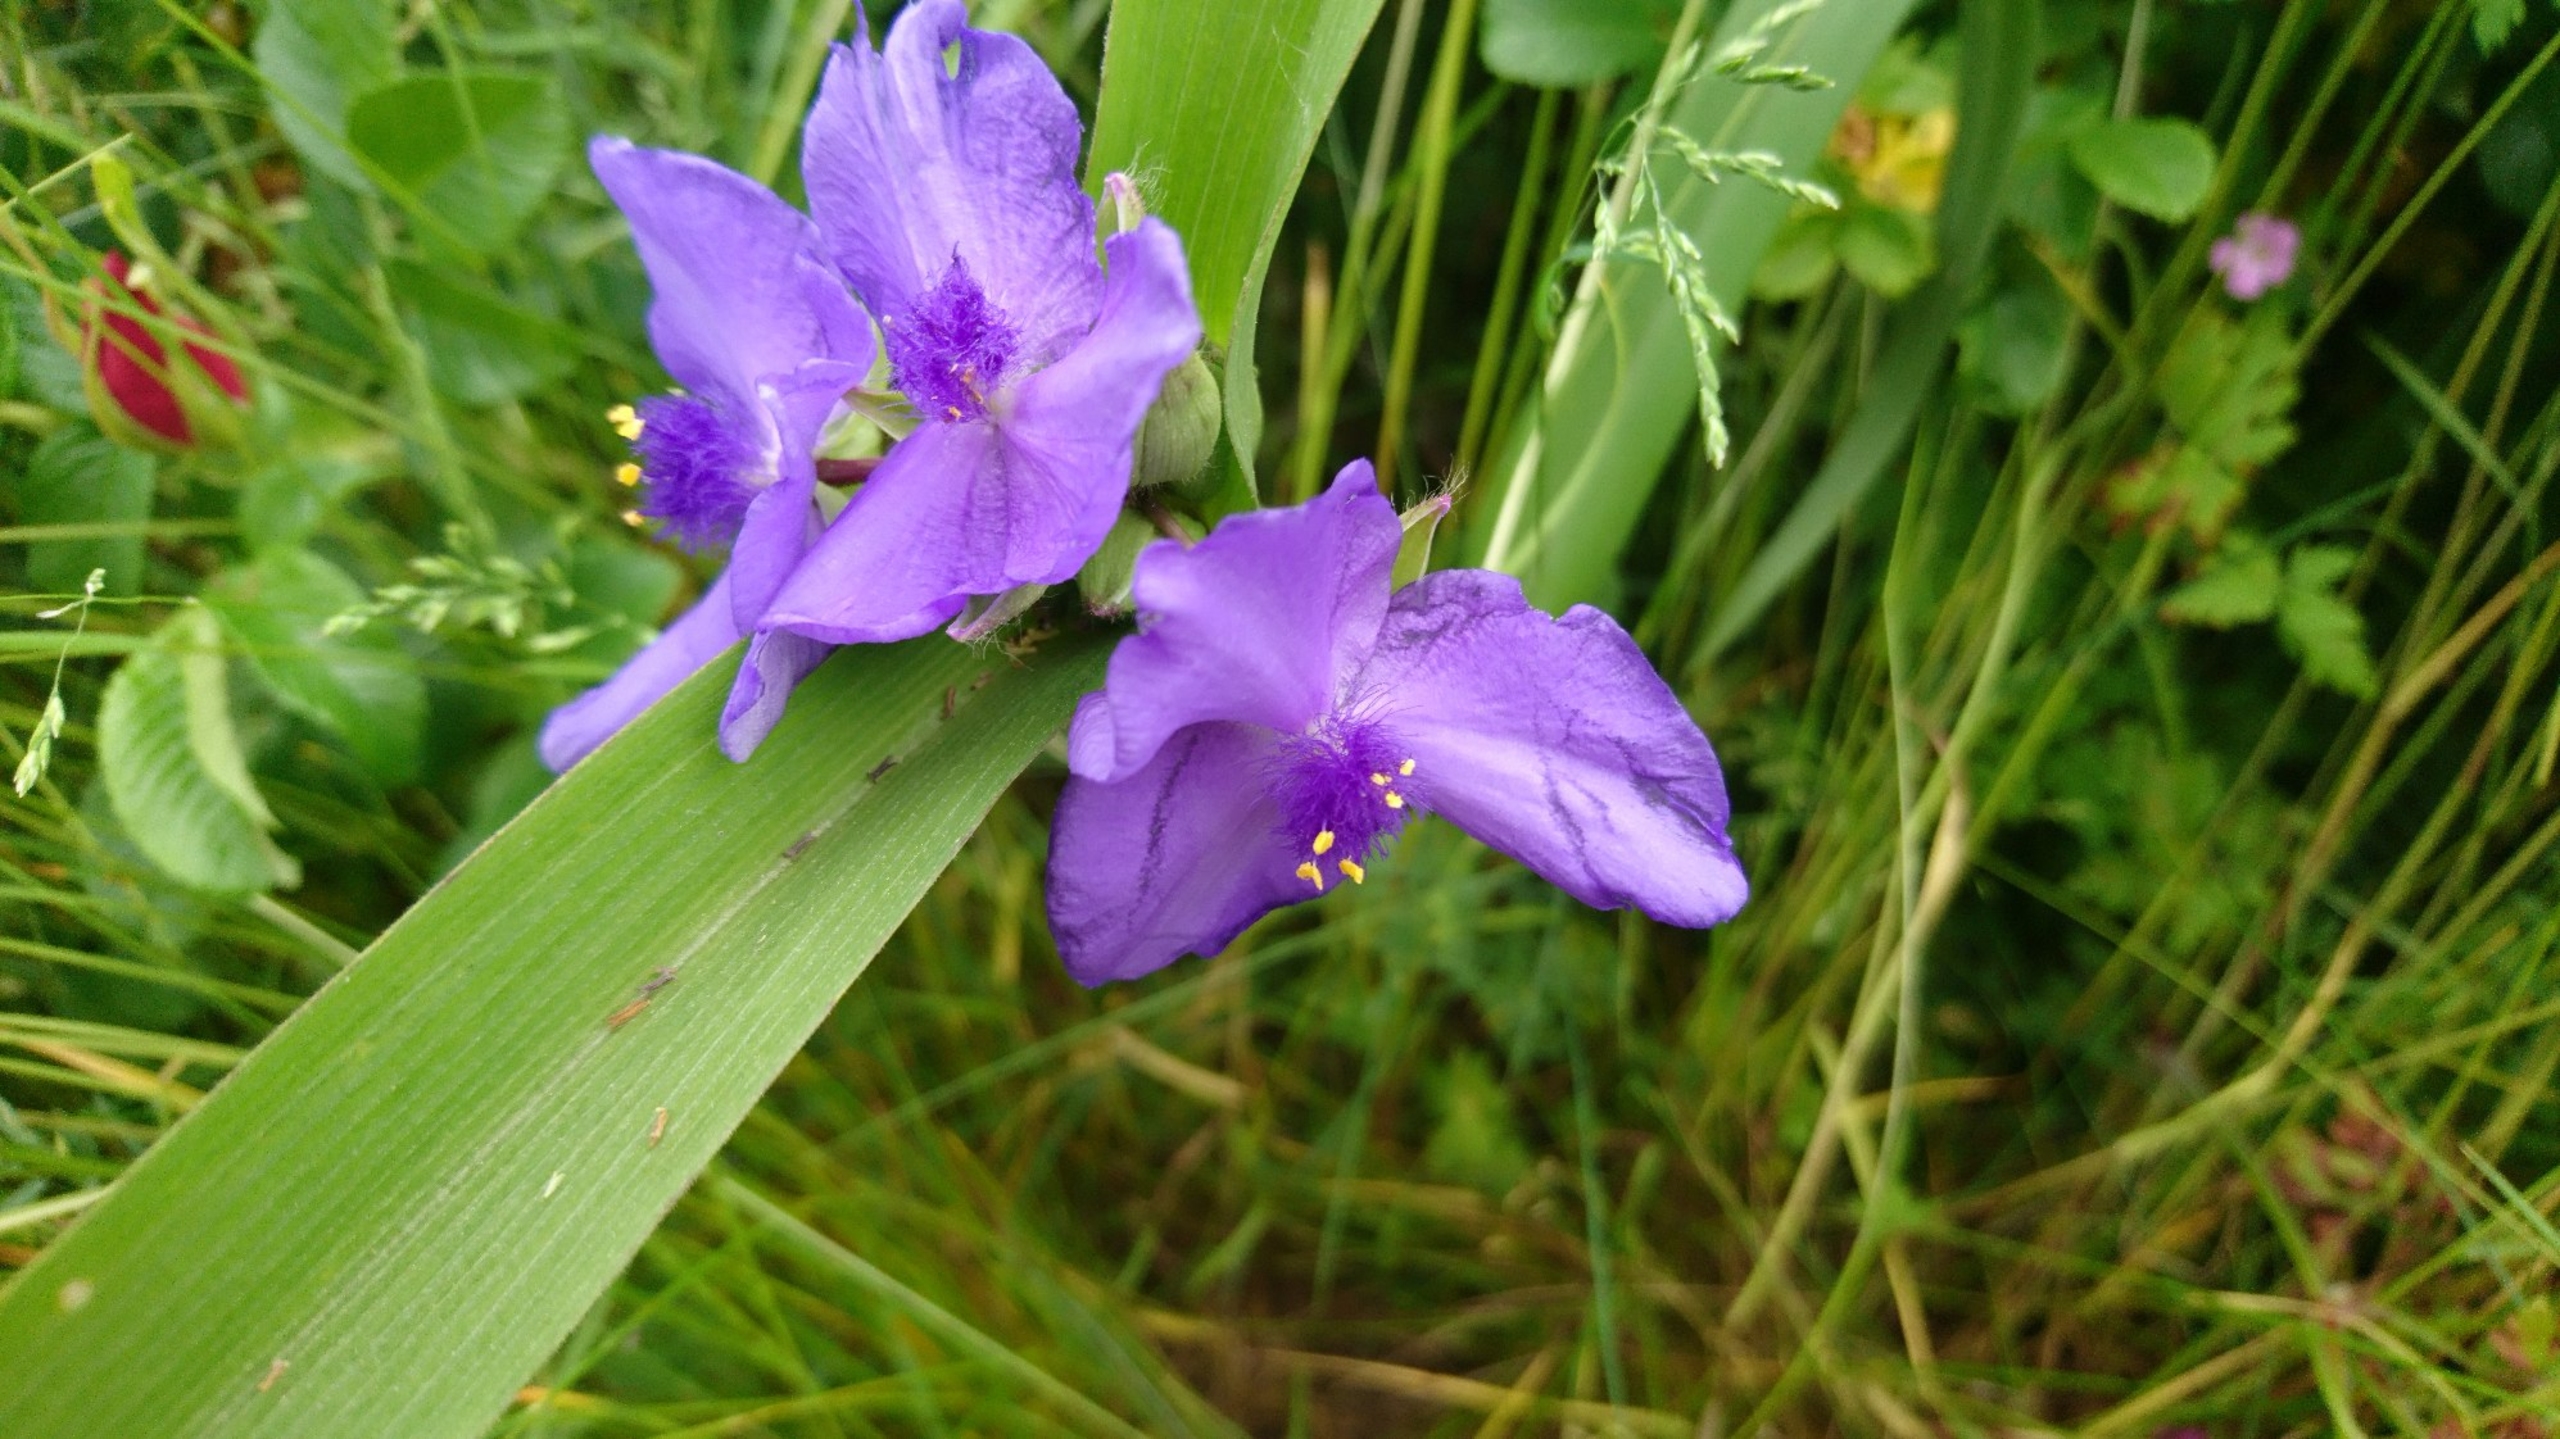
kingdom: Plantae
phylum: Tracheophyta
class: Liliopsida
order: Commelinales
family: Commelinaceae
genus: Tradescantia
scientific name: Tradescantia virginiana
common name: Blomsterjøde
